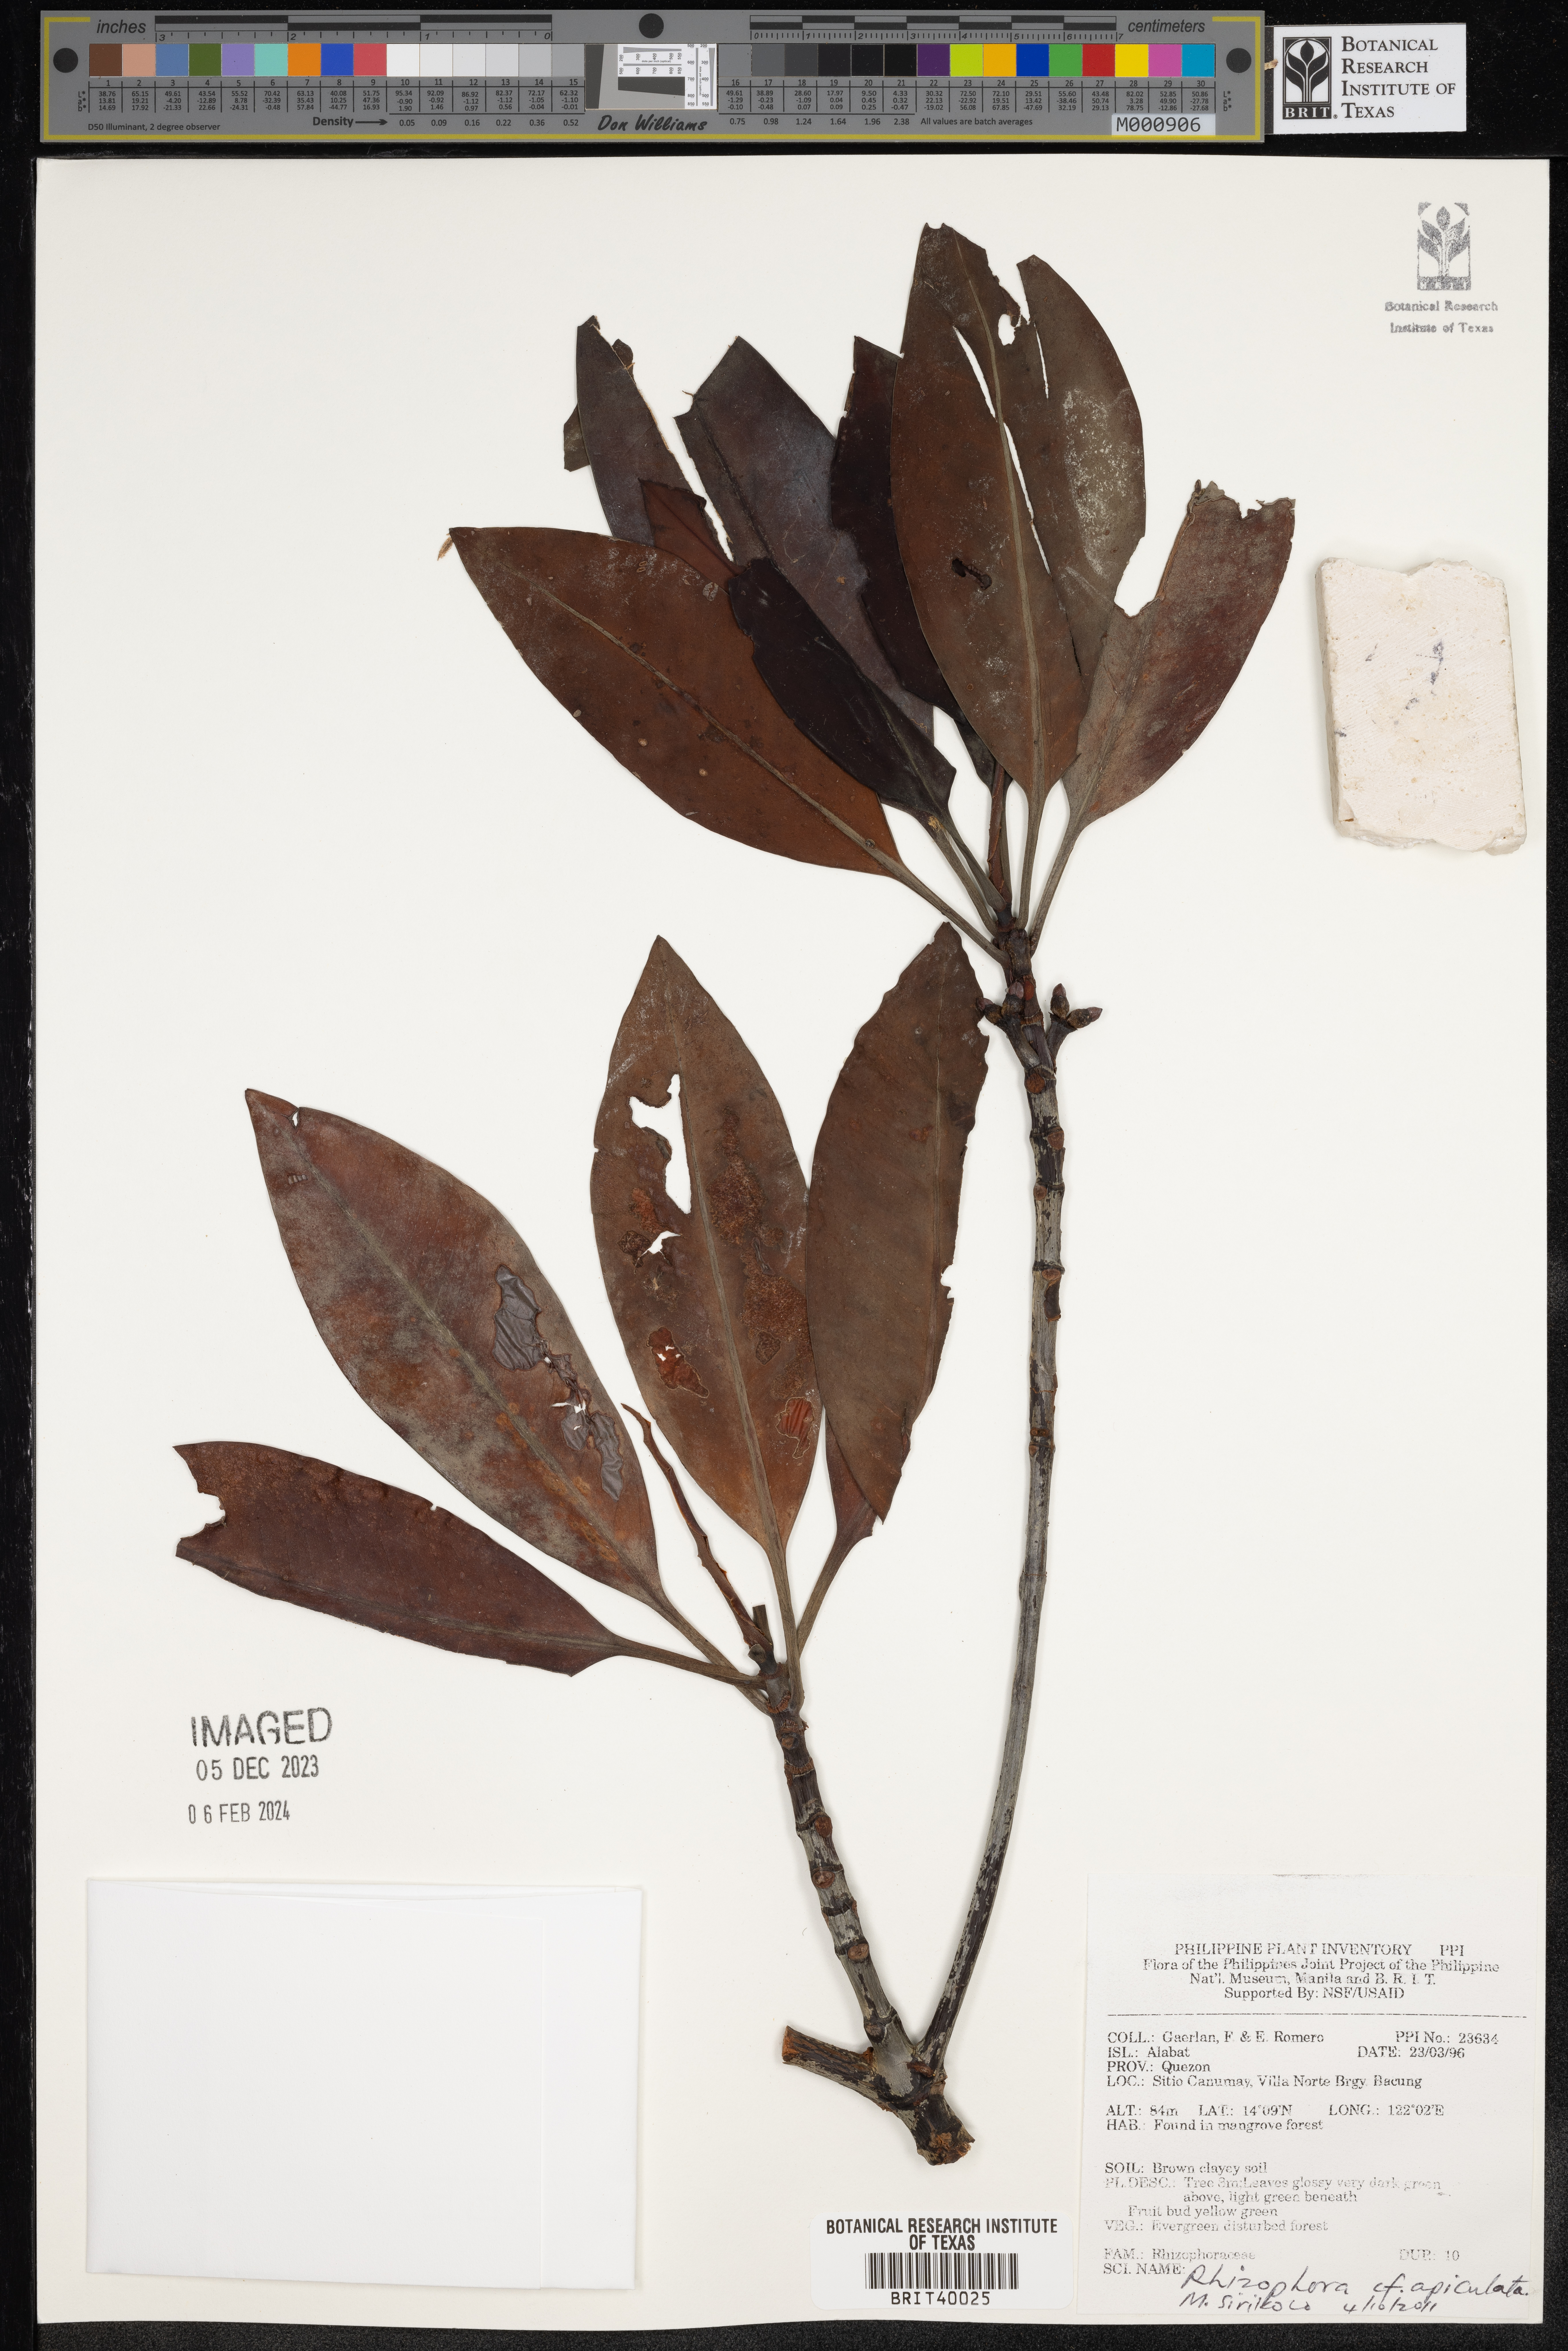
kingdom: Plantae
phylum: Tracheophyta
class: Magnoliopsida
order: Malpighiales
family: Rhizophoraceae
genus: Rhizophora
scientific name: Rhizophora apiculata
